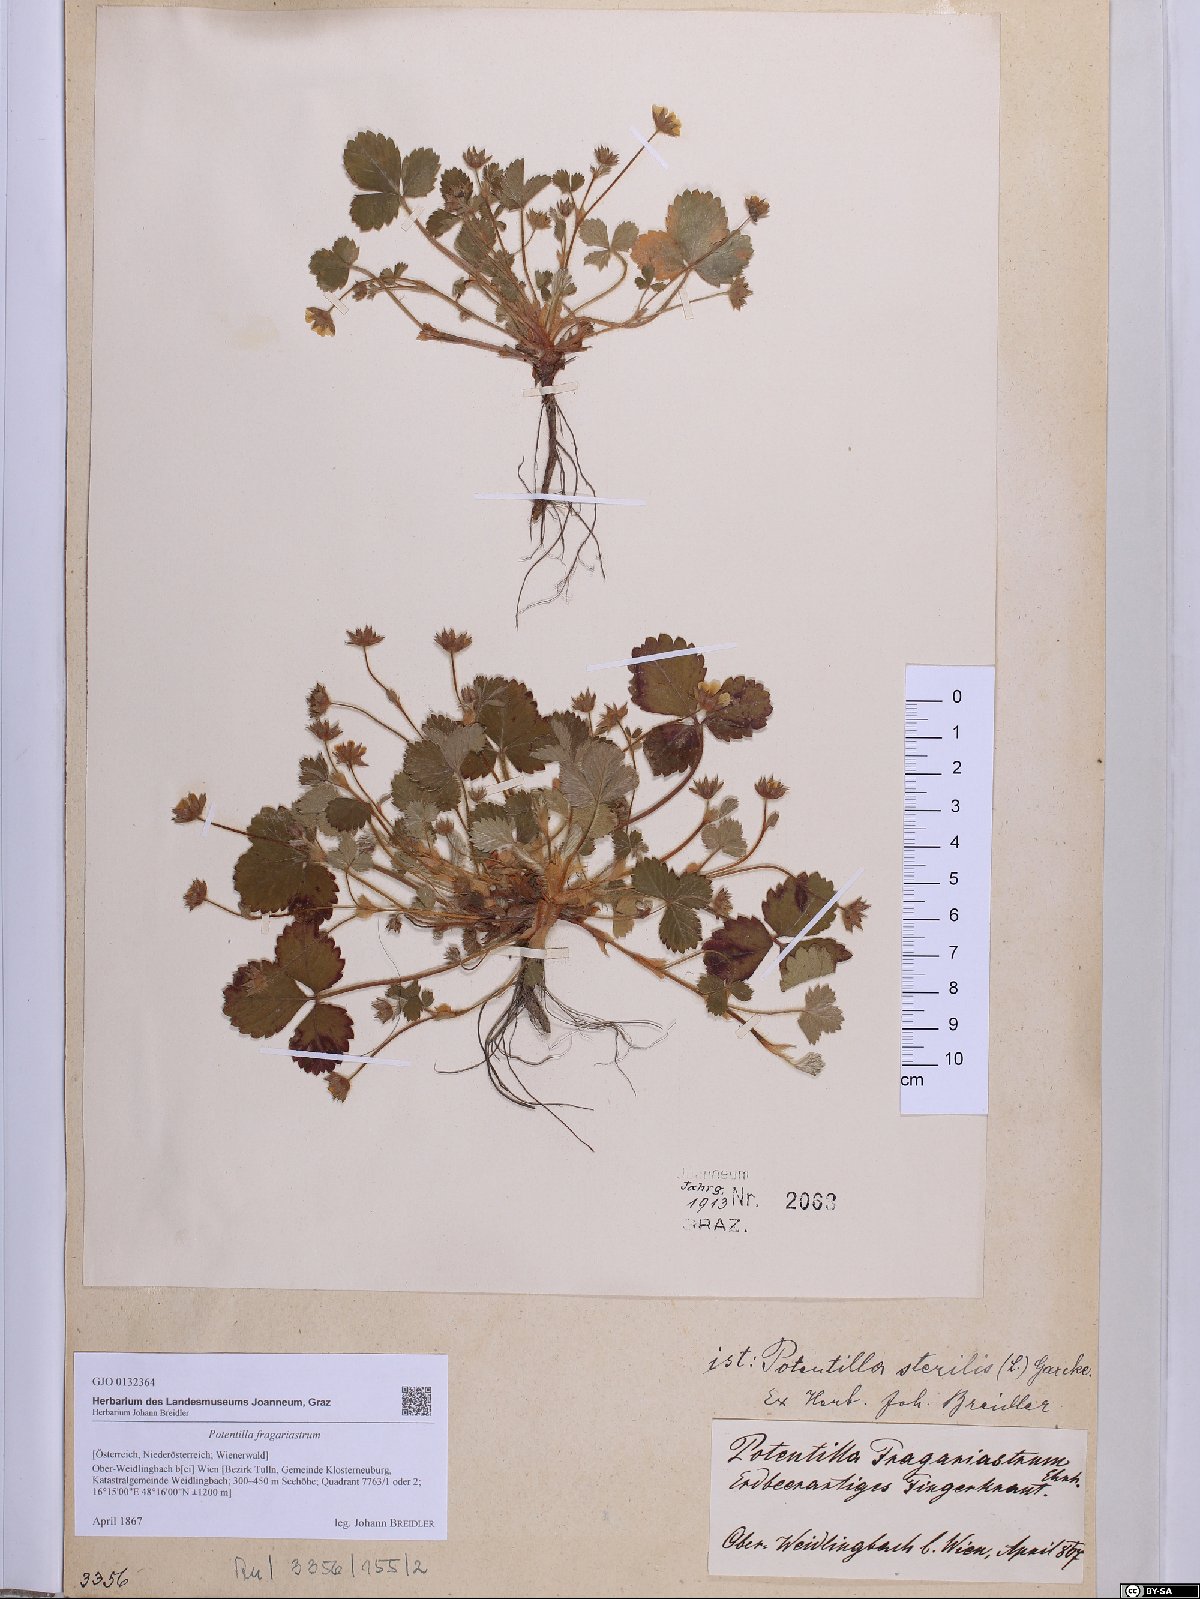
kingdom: Plantae
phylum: Tracheophyta
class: Magnoliopsida
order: Rosales
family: Rosaceae
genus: Potentilla
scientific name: Potentilla sterilis
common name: Barren strawberry
